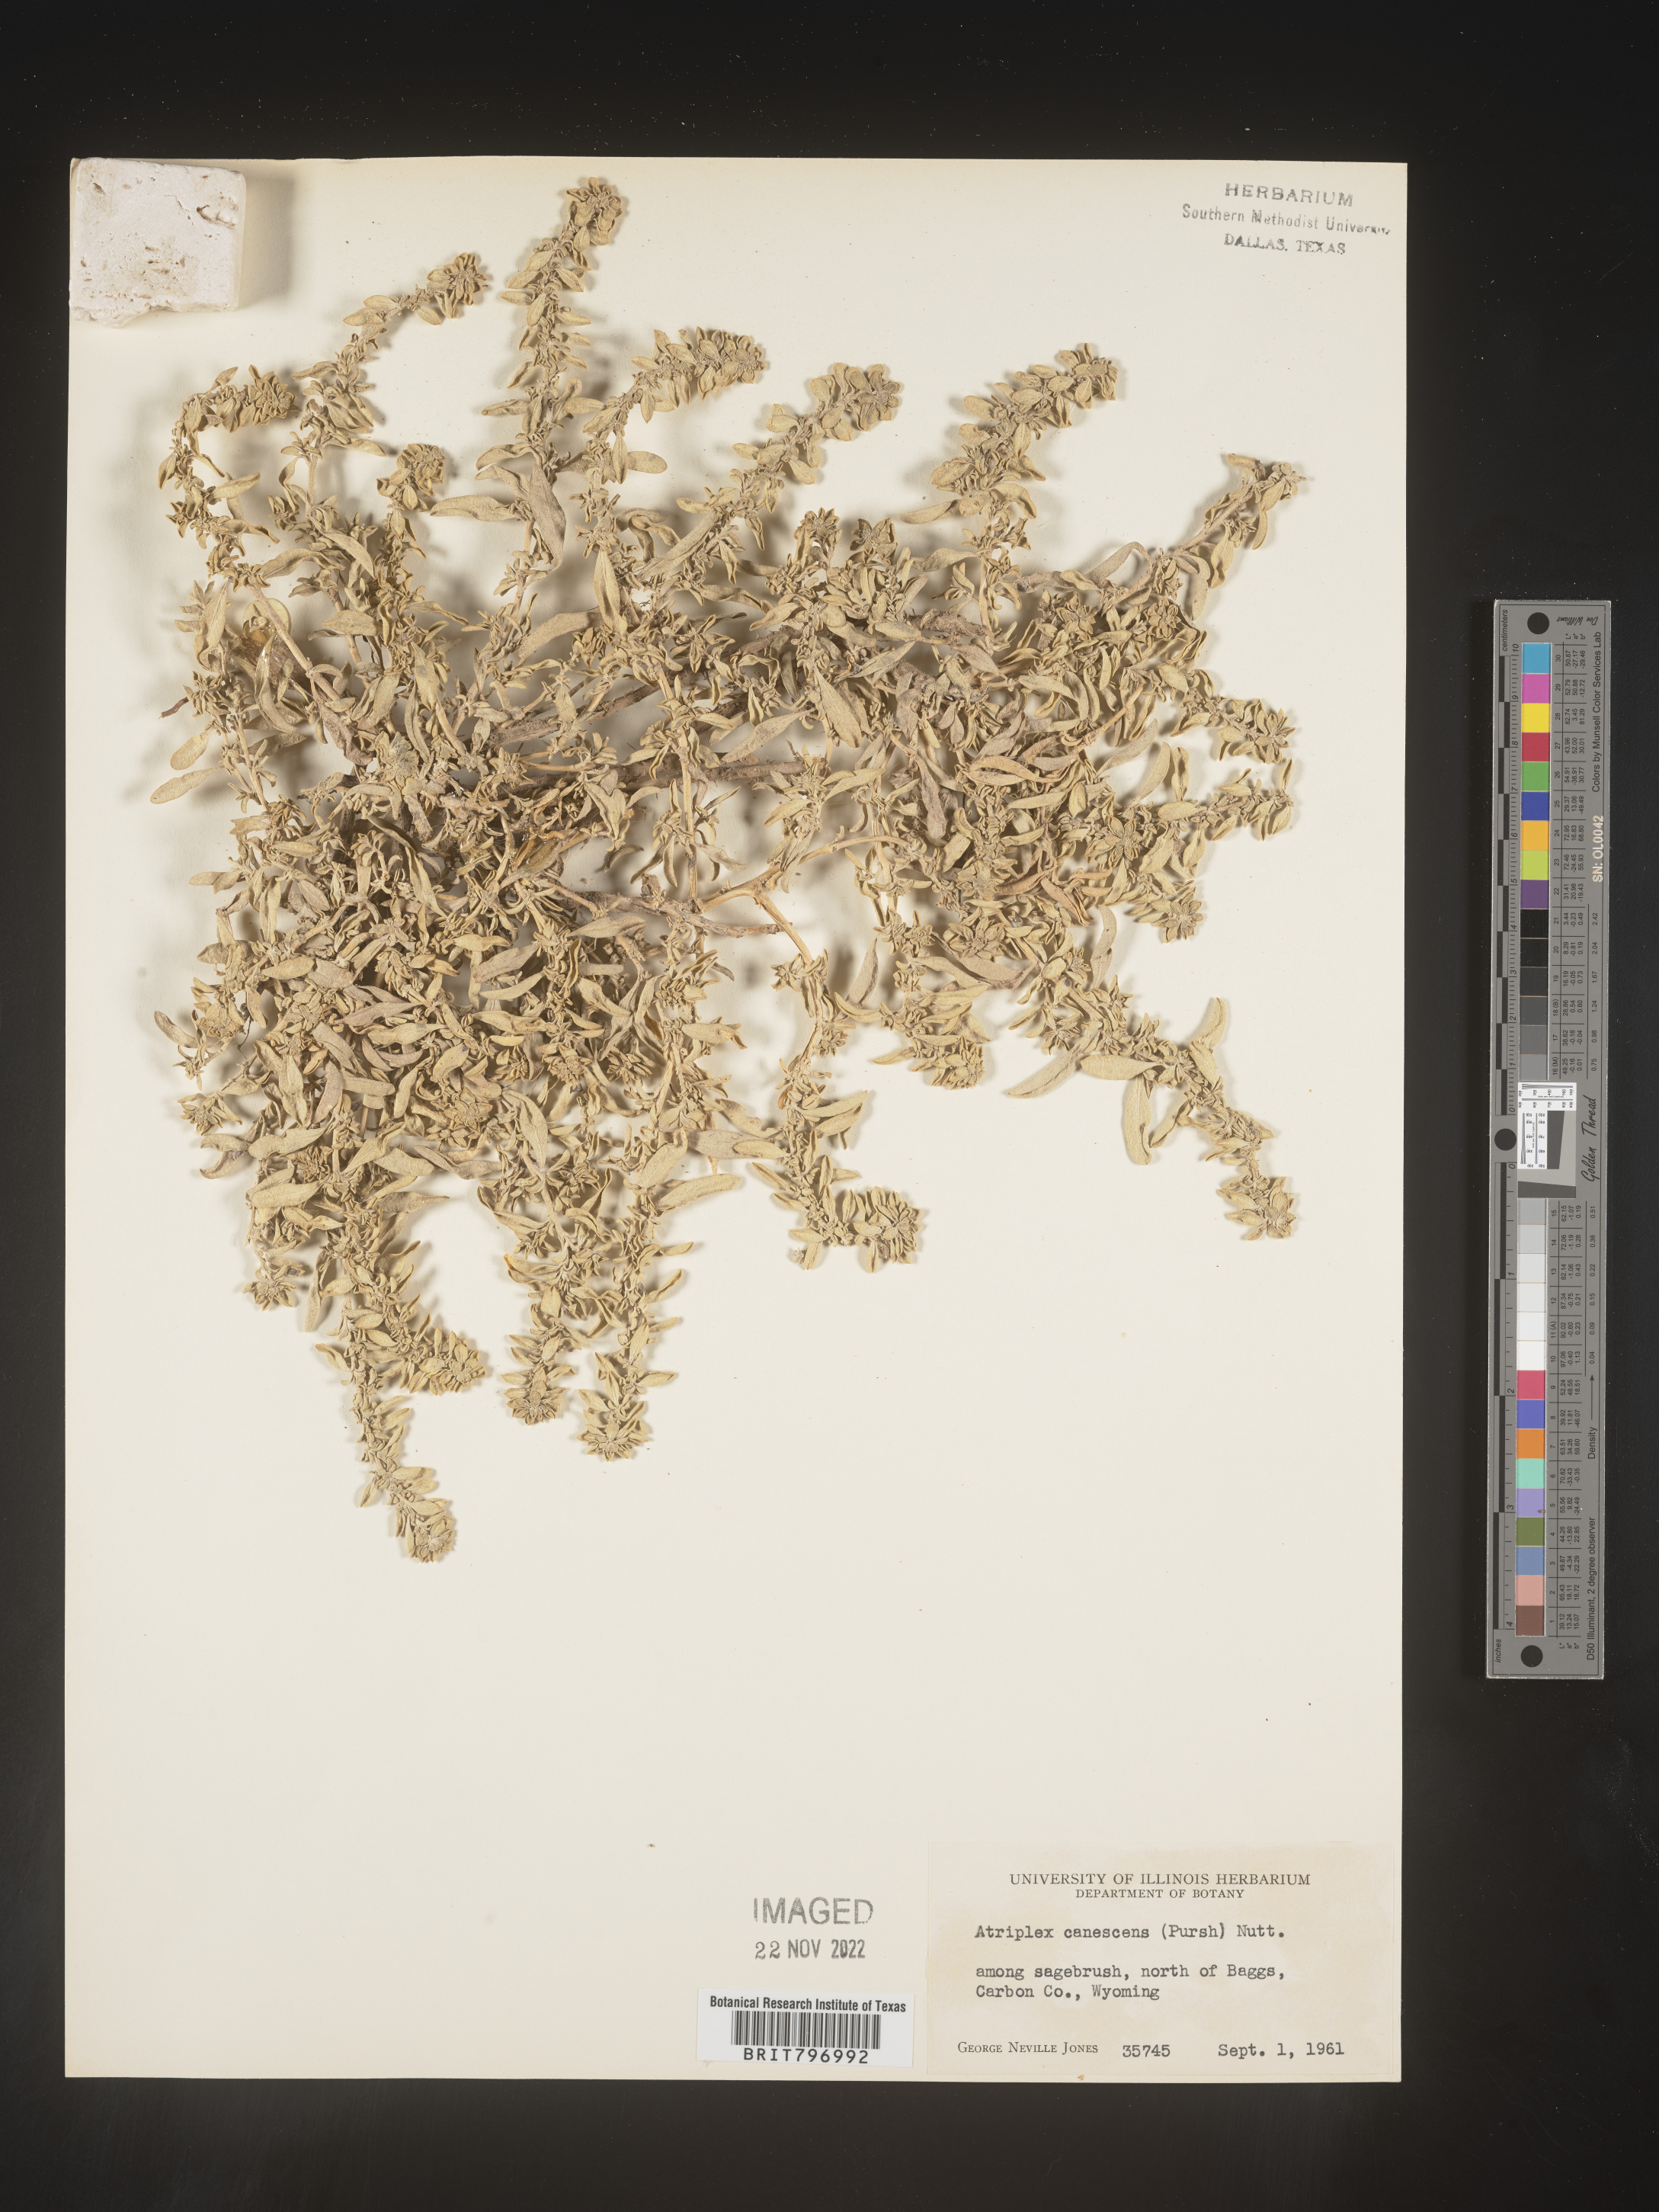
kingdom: Plantae
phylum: Tracheophyta
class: Magnoliopsida
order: Caryophyllales
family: Amaranthaceae
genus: Atriplex
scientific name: Atriplex canescens
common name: Four-wing saltbush
